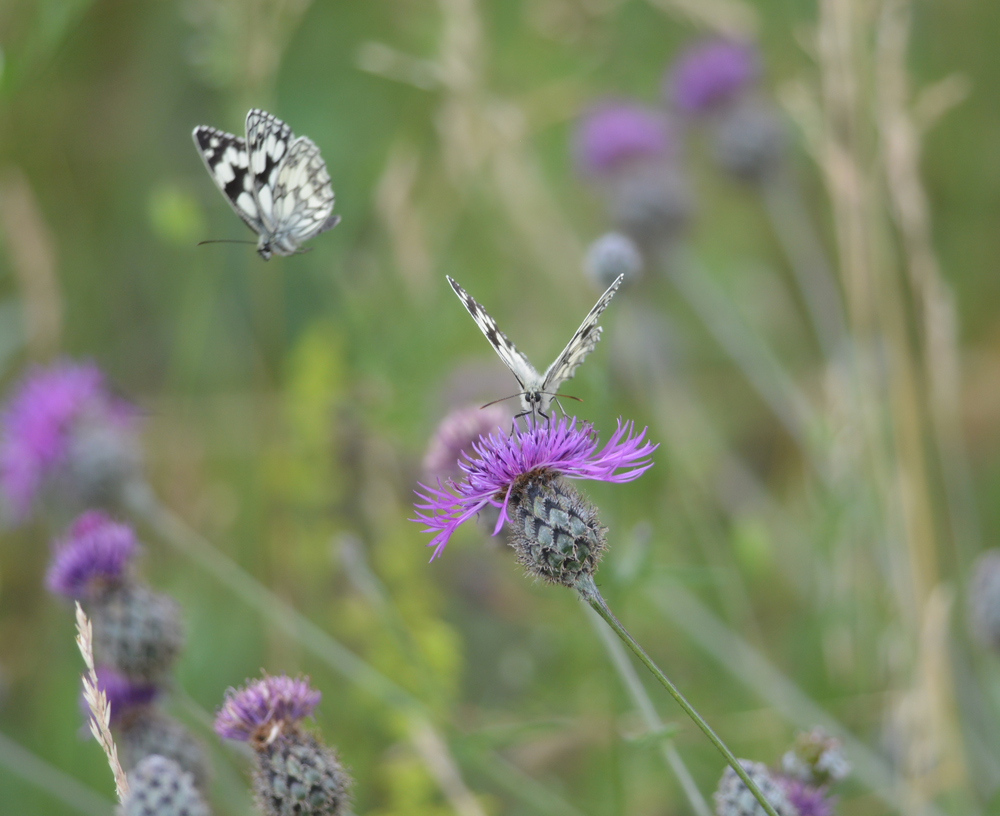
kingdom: Animalia
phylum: Arthropoda
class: Insecta
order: Lepidoptera
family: Nymphalidae
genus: Melanargia
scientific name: Melanargia galathea
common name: Marbled white
